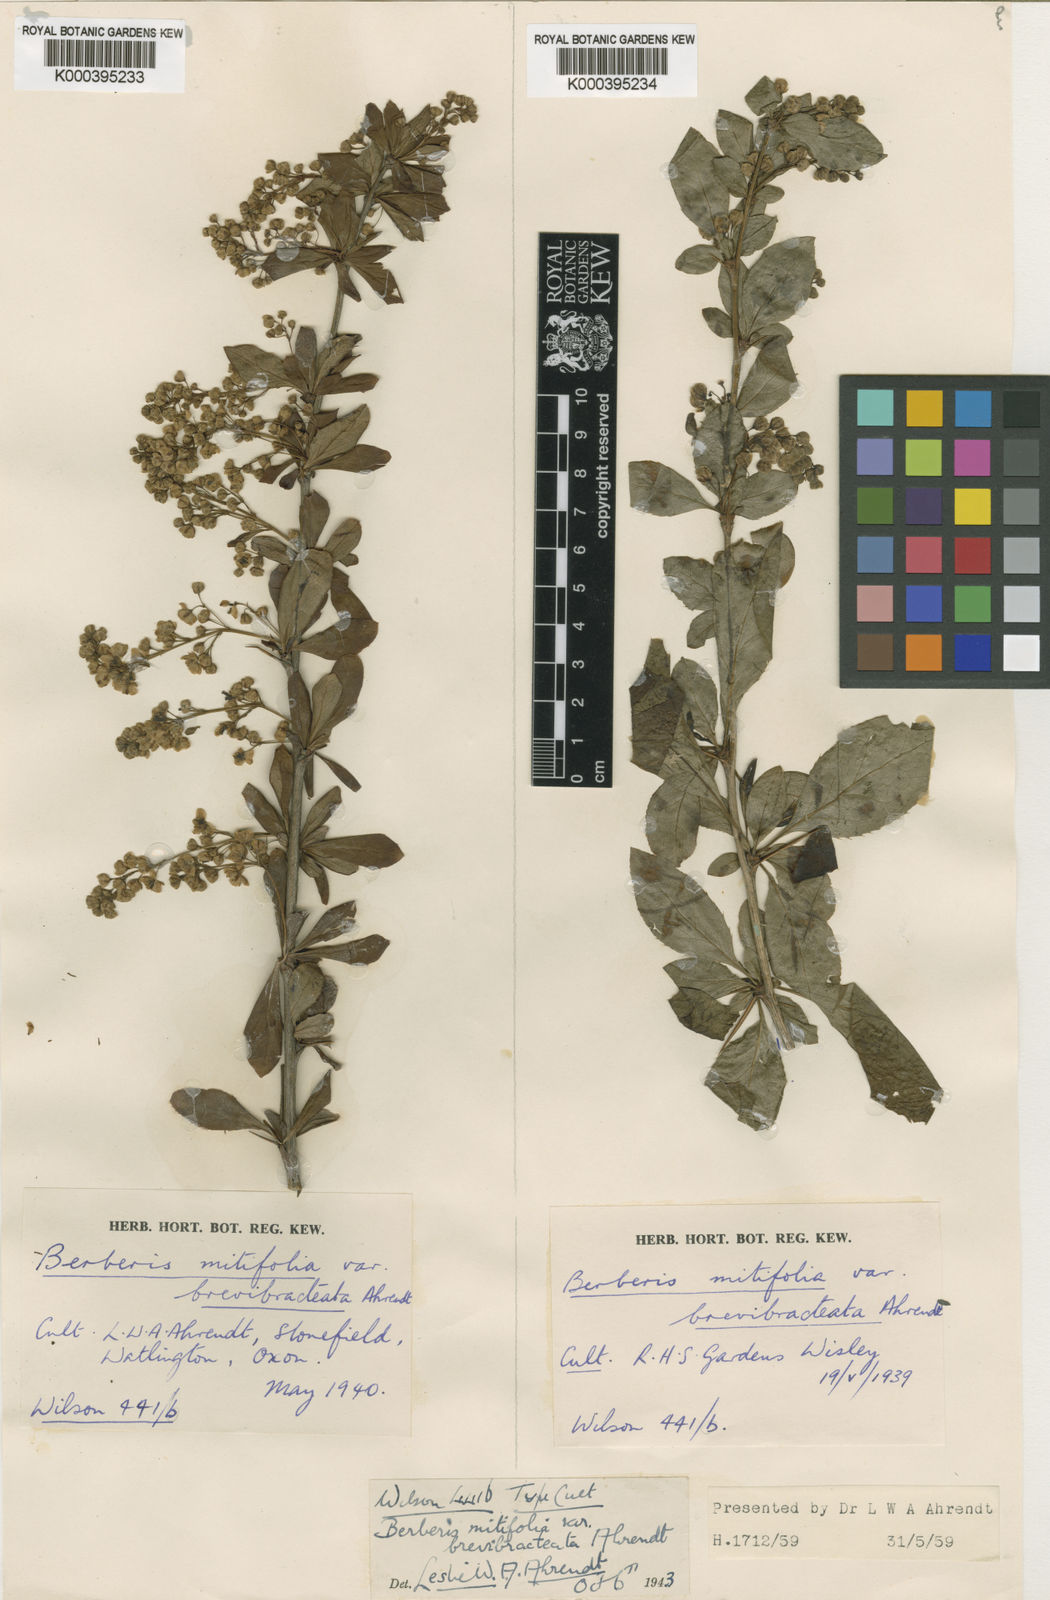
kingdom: Plantae
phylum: Tracheophyta
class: Magnoliopsida
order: Ranunculales
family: Berberidaceae
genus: Berberis
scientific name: Berberis subsessiliflora
